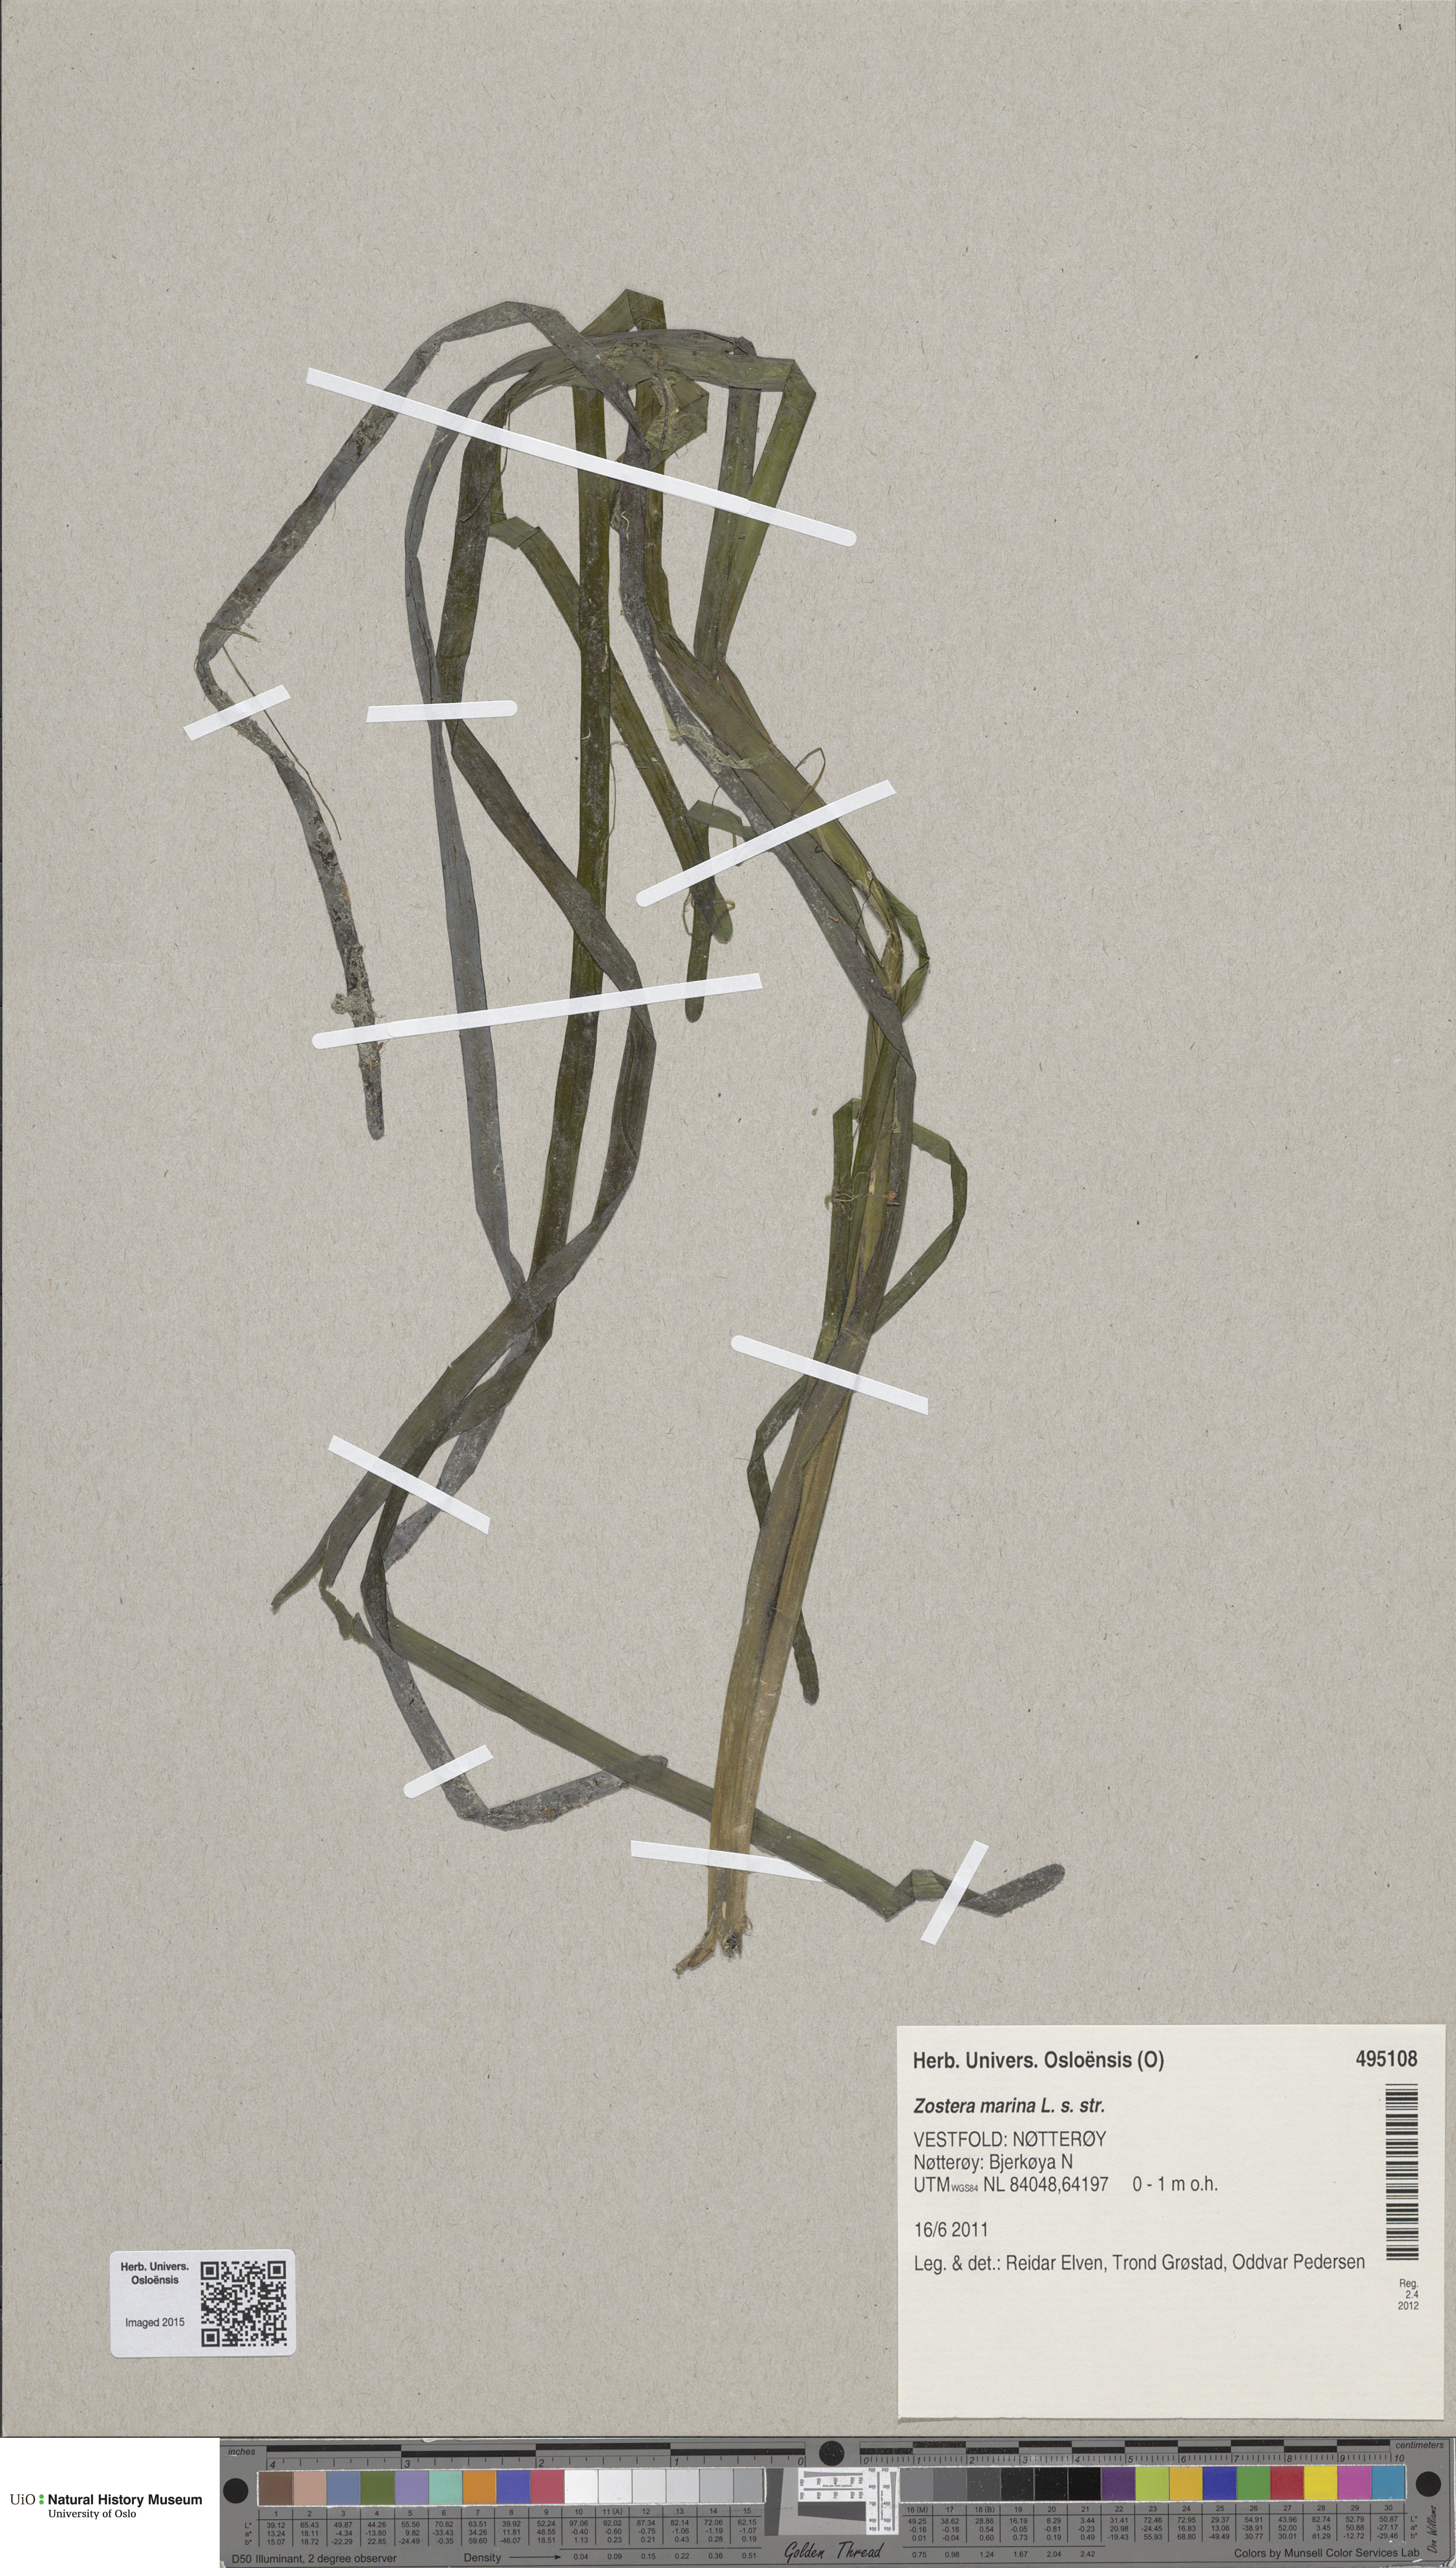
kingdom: Plantae
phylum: Tracheophyta
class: Liliopsida
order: Alismatales
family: Zosteraceae
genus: Zostera
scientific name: Zostera marina
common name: Eelgrass
